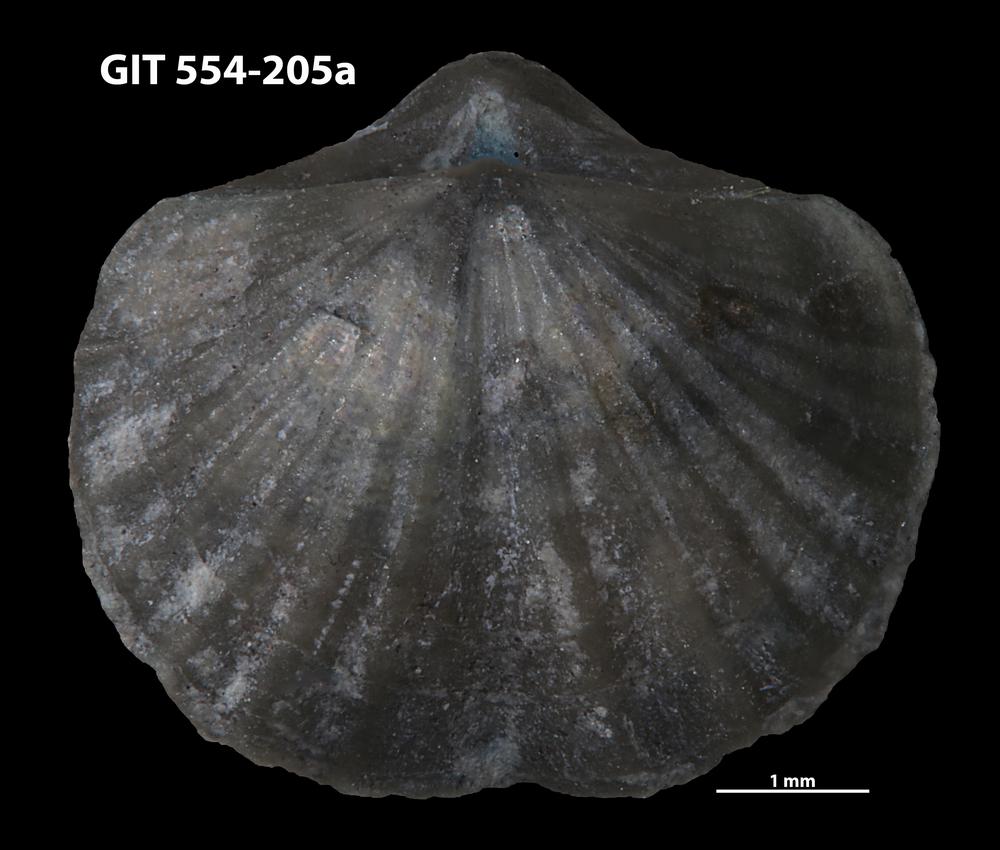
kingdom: Animalia
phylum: Brachiopoda
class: Rhynchonellata
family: Dalmanellidae
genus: Ravozetina
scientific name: Ravozetina
